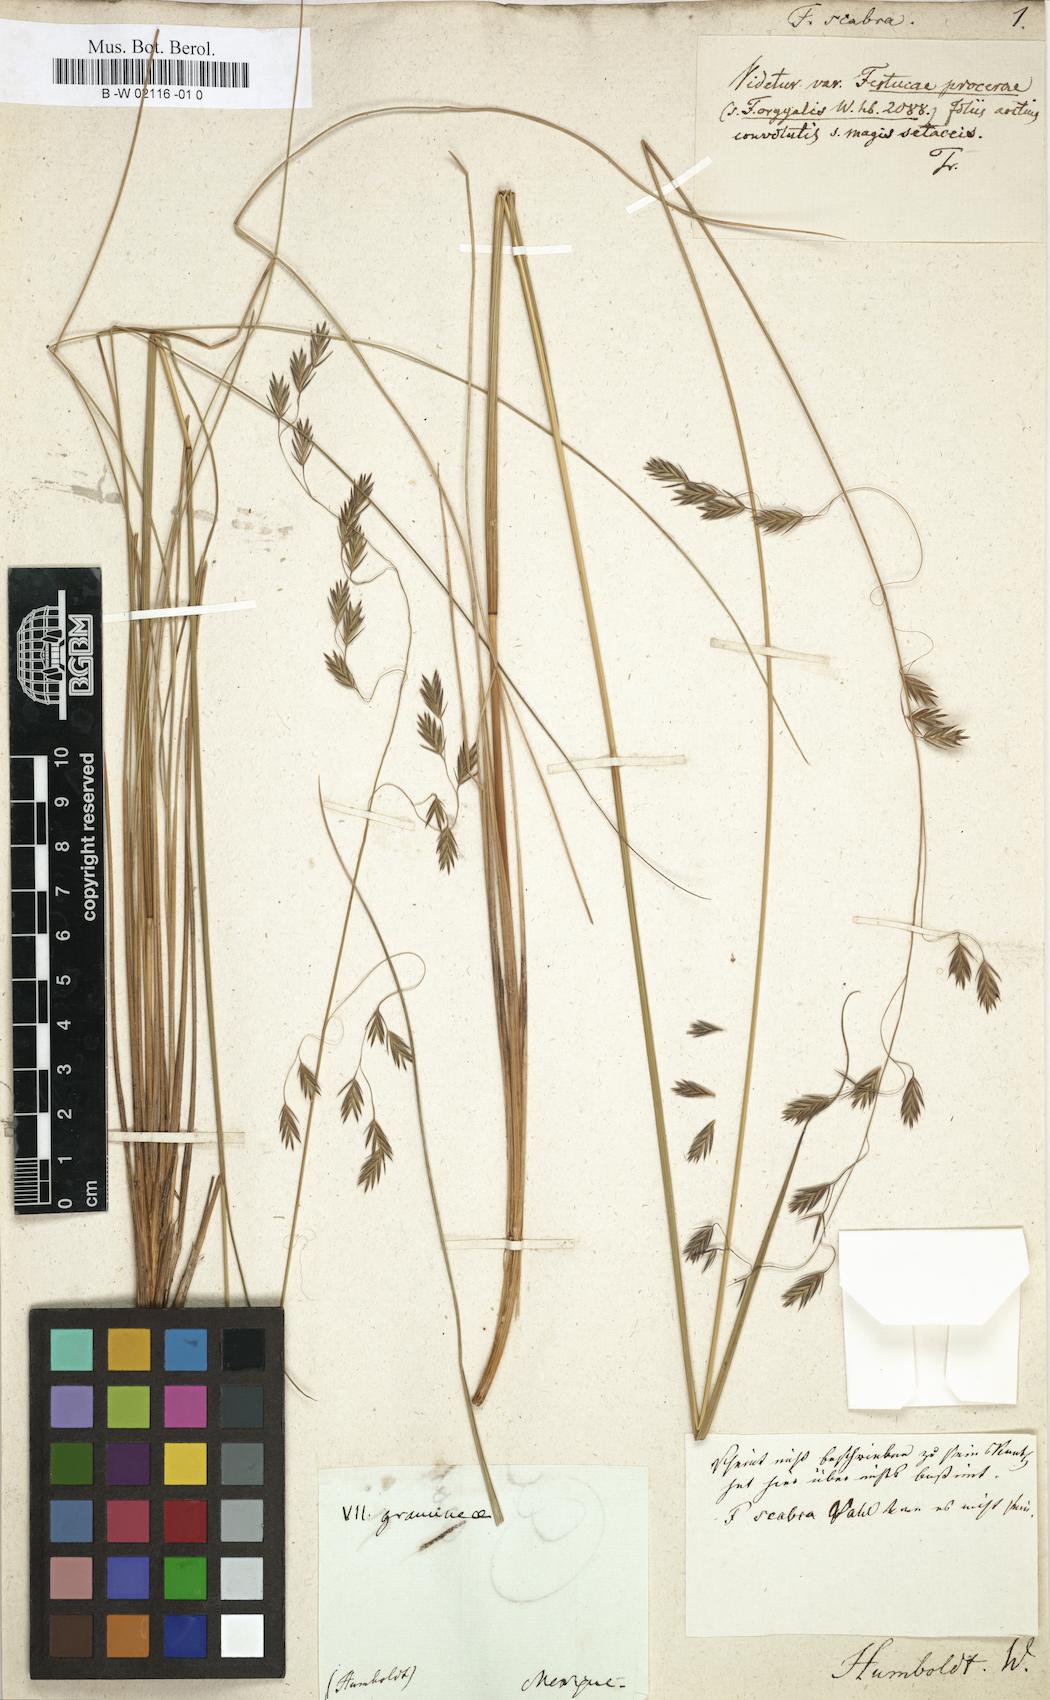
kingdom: Plantae
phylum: Tracheophyta
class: Liliopsida
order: Poales
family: Poaceae
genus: Festuca
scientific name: Festuca procera
